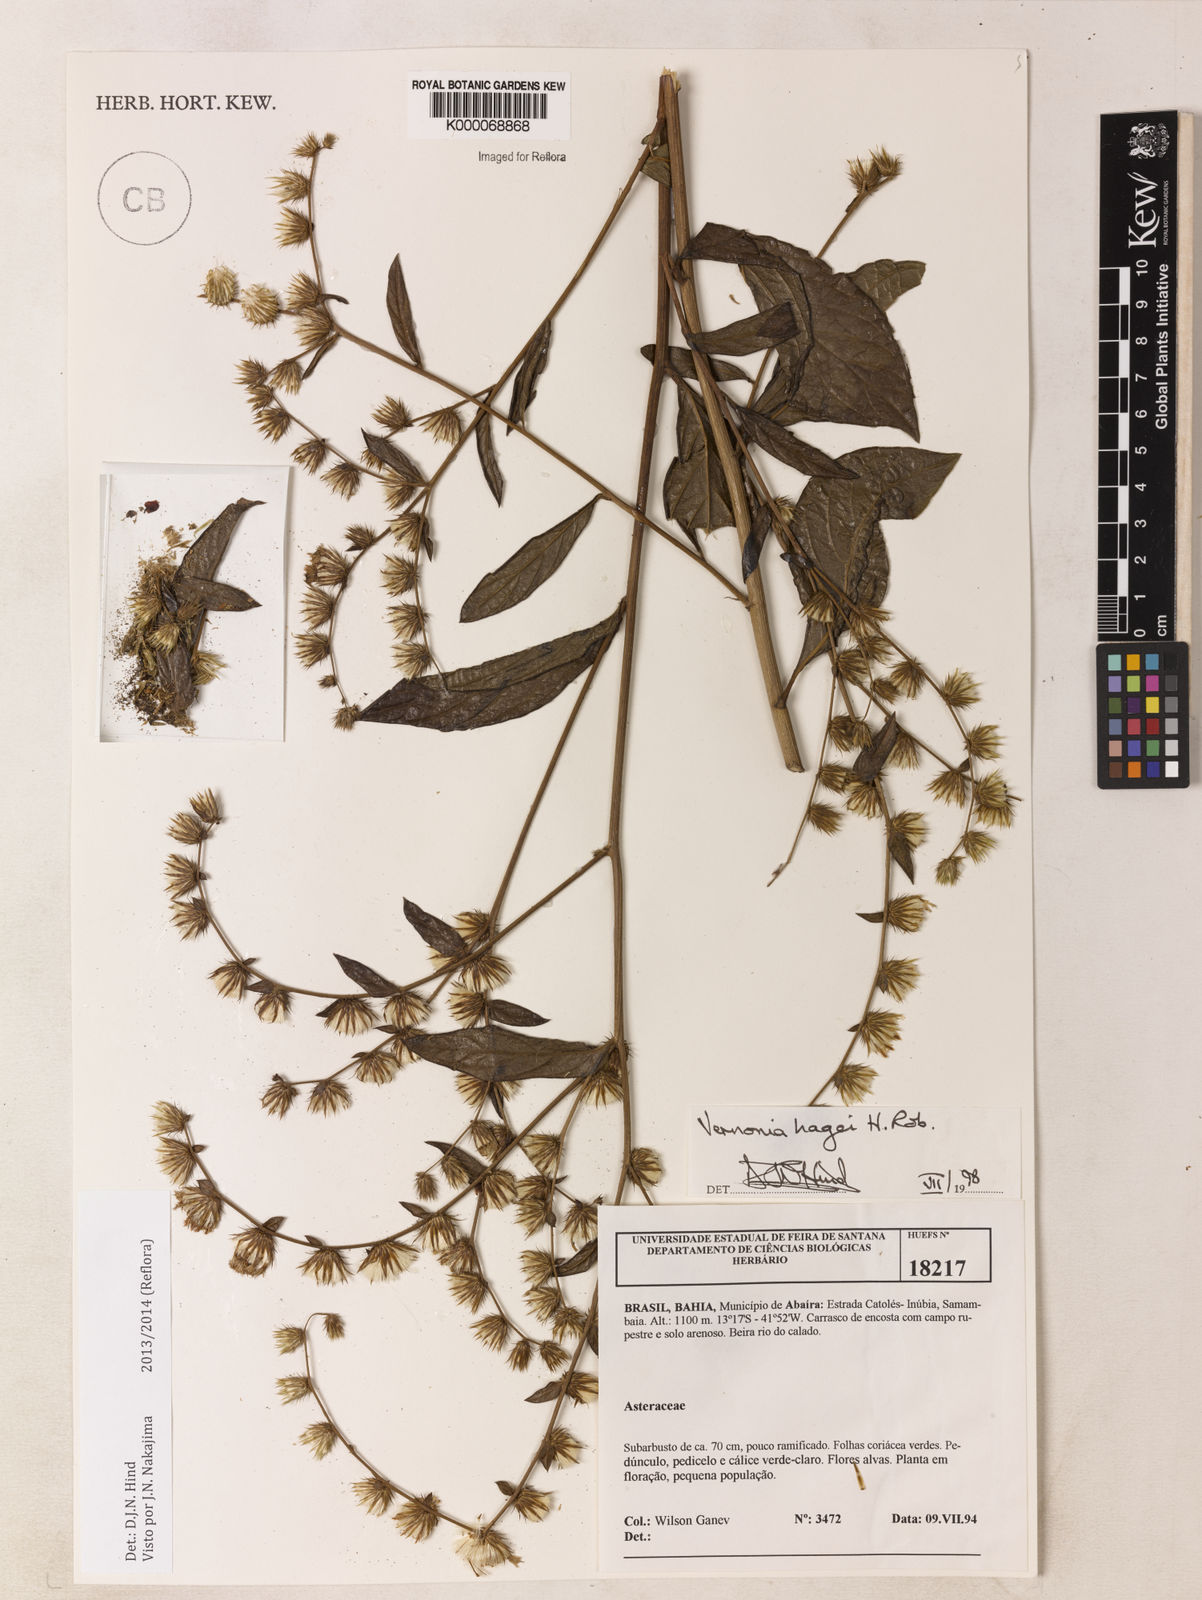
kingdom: Plantae
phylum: Tracheophyta
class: Magnoliopsida
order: Asterales
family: Asteraceae
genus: Lepidaploa
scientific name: Lepidaploa hagei
